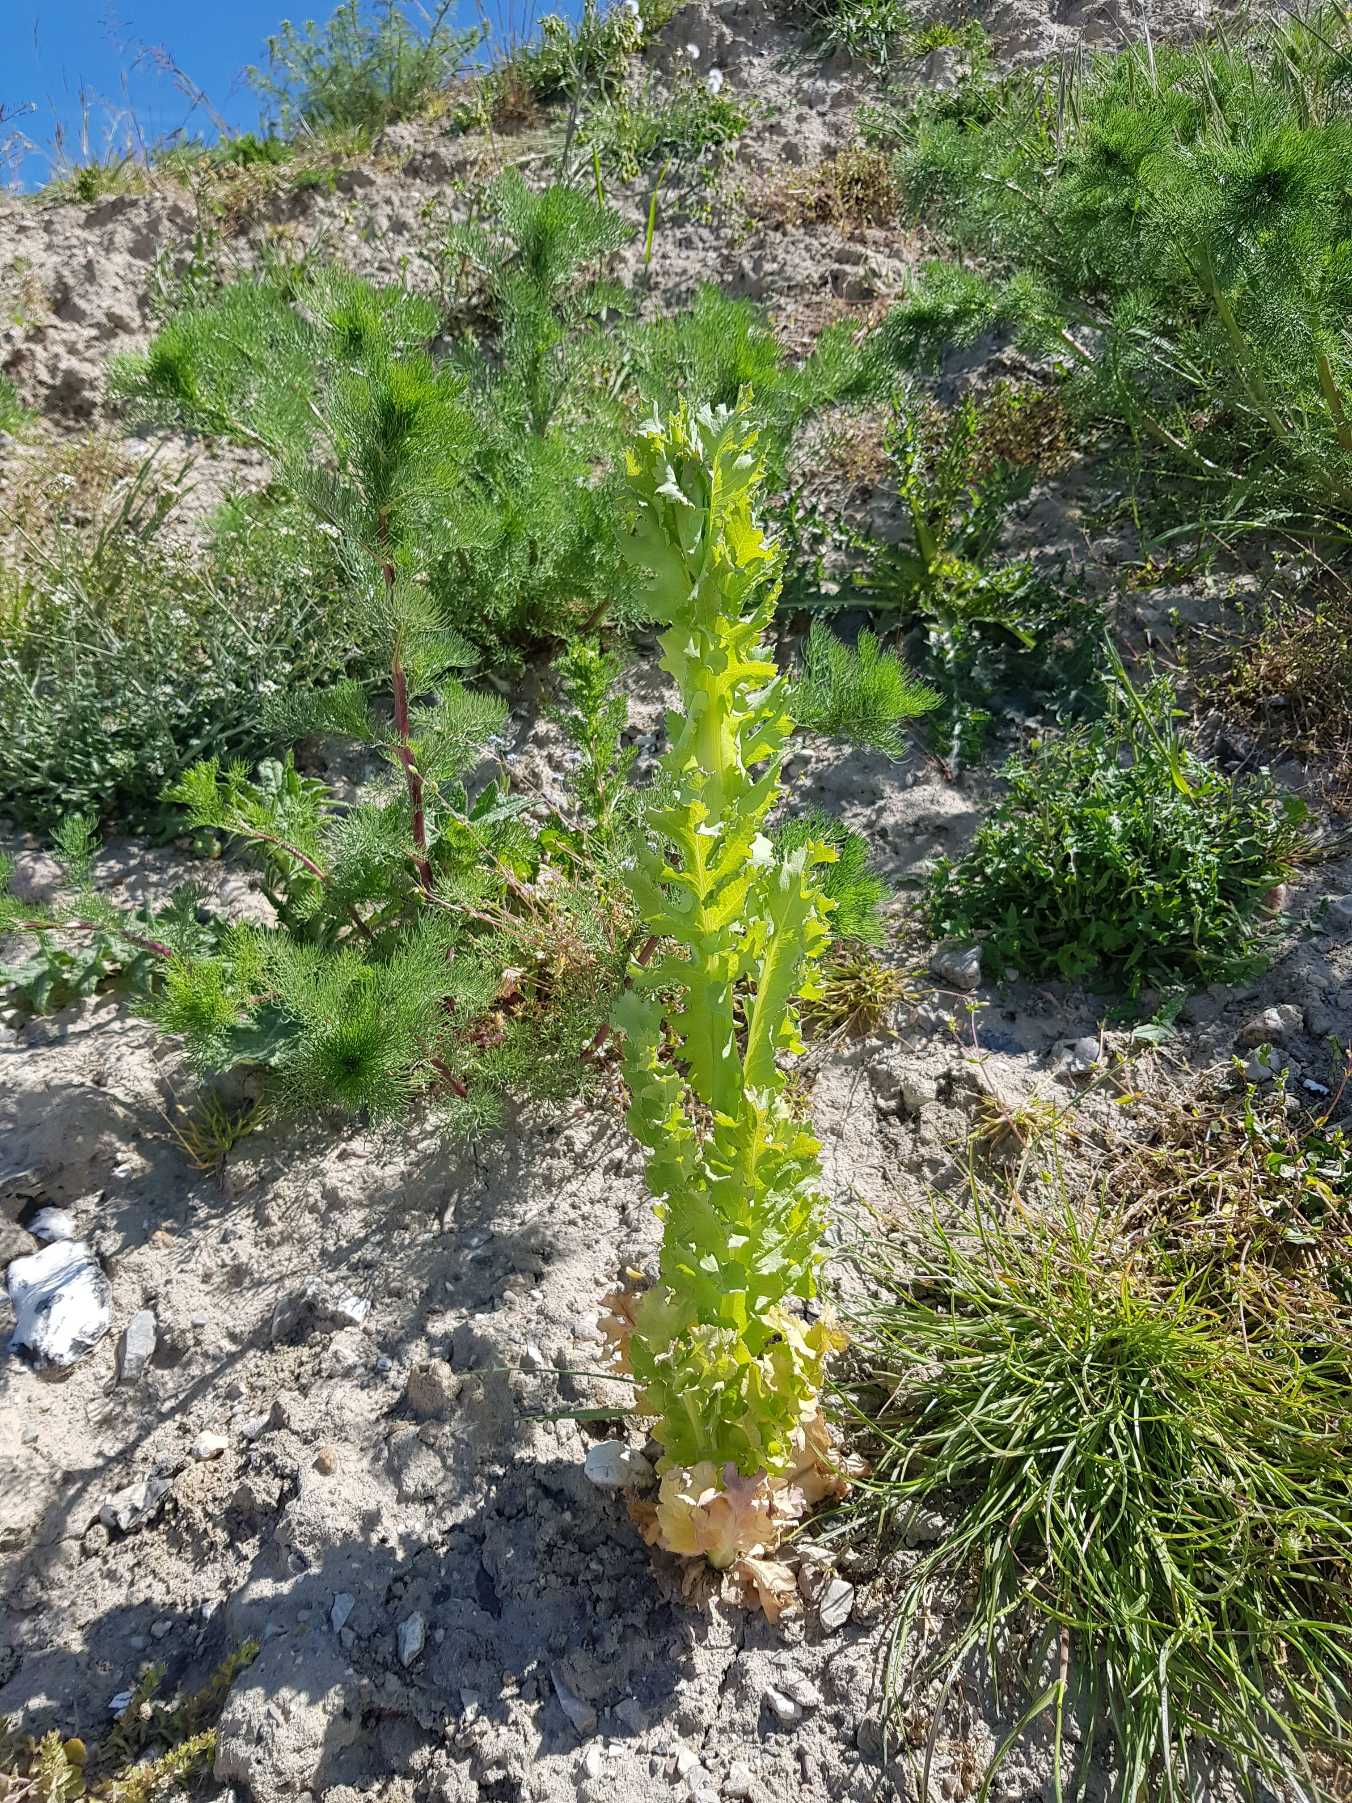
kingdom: Plantae
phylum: Tracheophyta
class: Magnoliopsida
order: Ranunculales
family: Papaveraceae
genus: Papaver
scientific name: Papaver somniferum
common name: Opium-valmue
